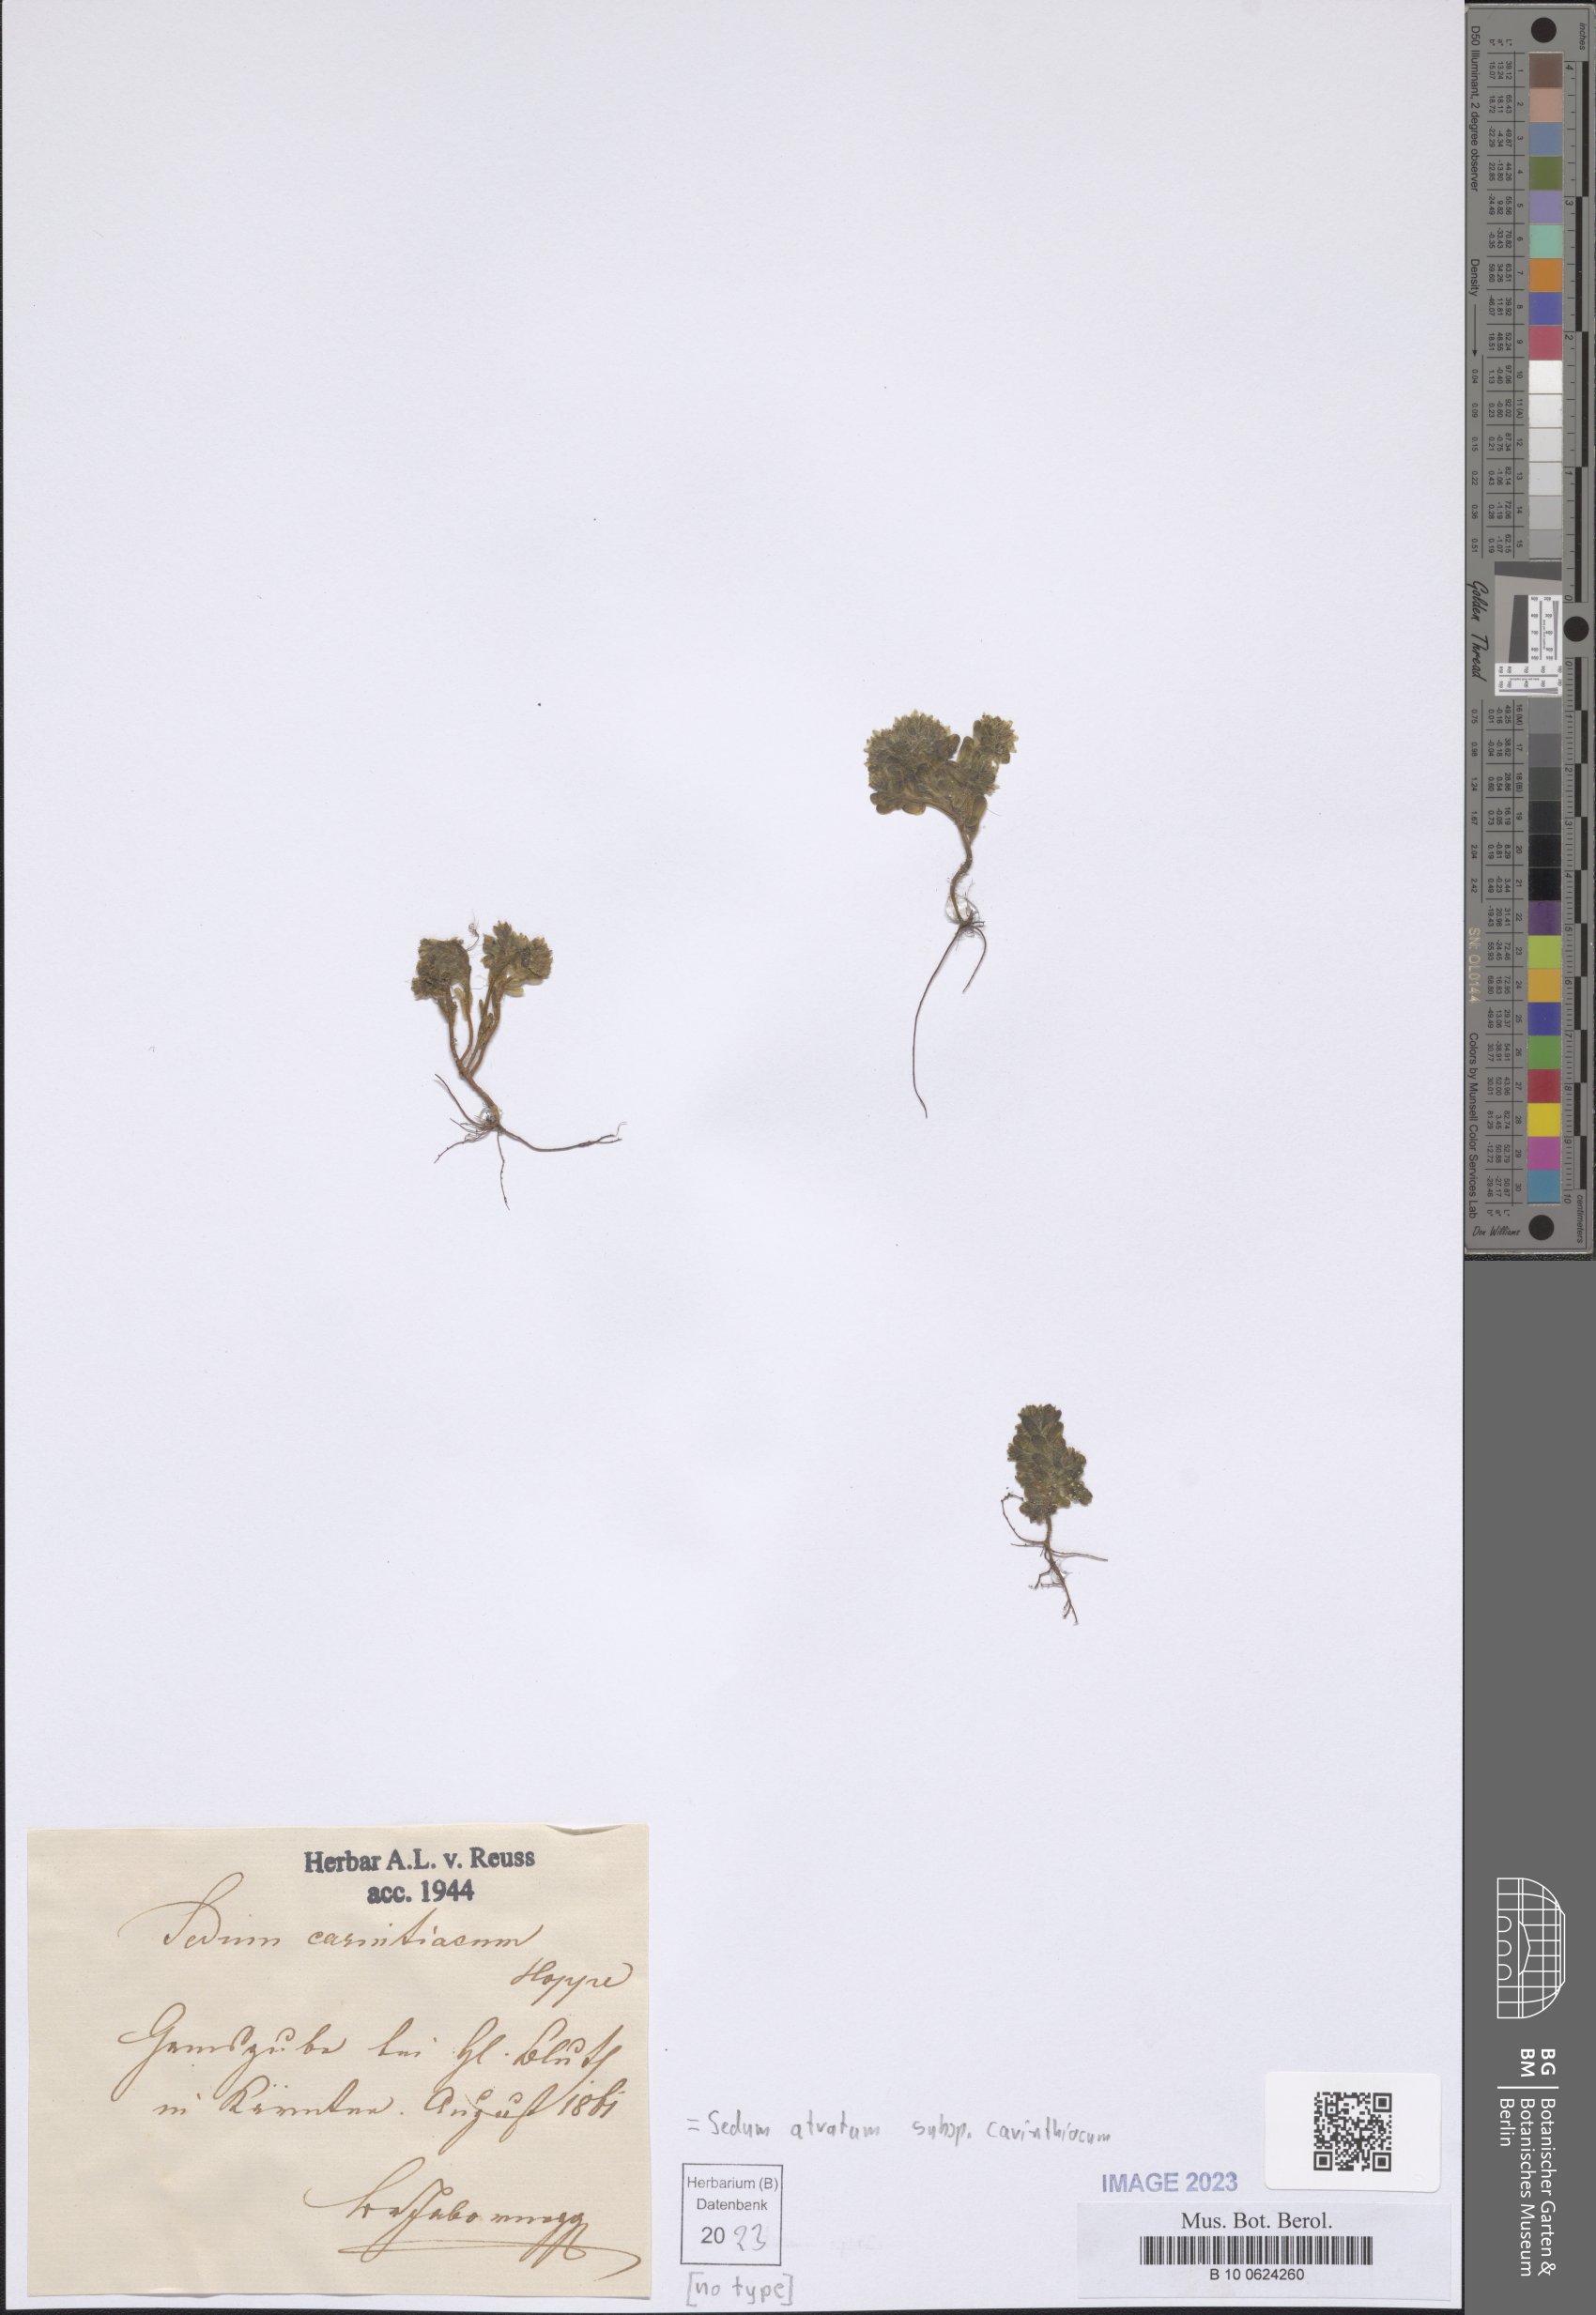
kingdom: Plantae
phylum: Tracheophyta
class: Magnoliopsida
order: Saxifragales
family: Crassulaceae
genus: Sedum
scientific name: Sedum atratum
